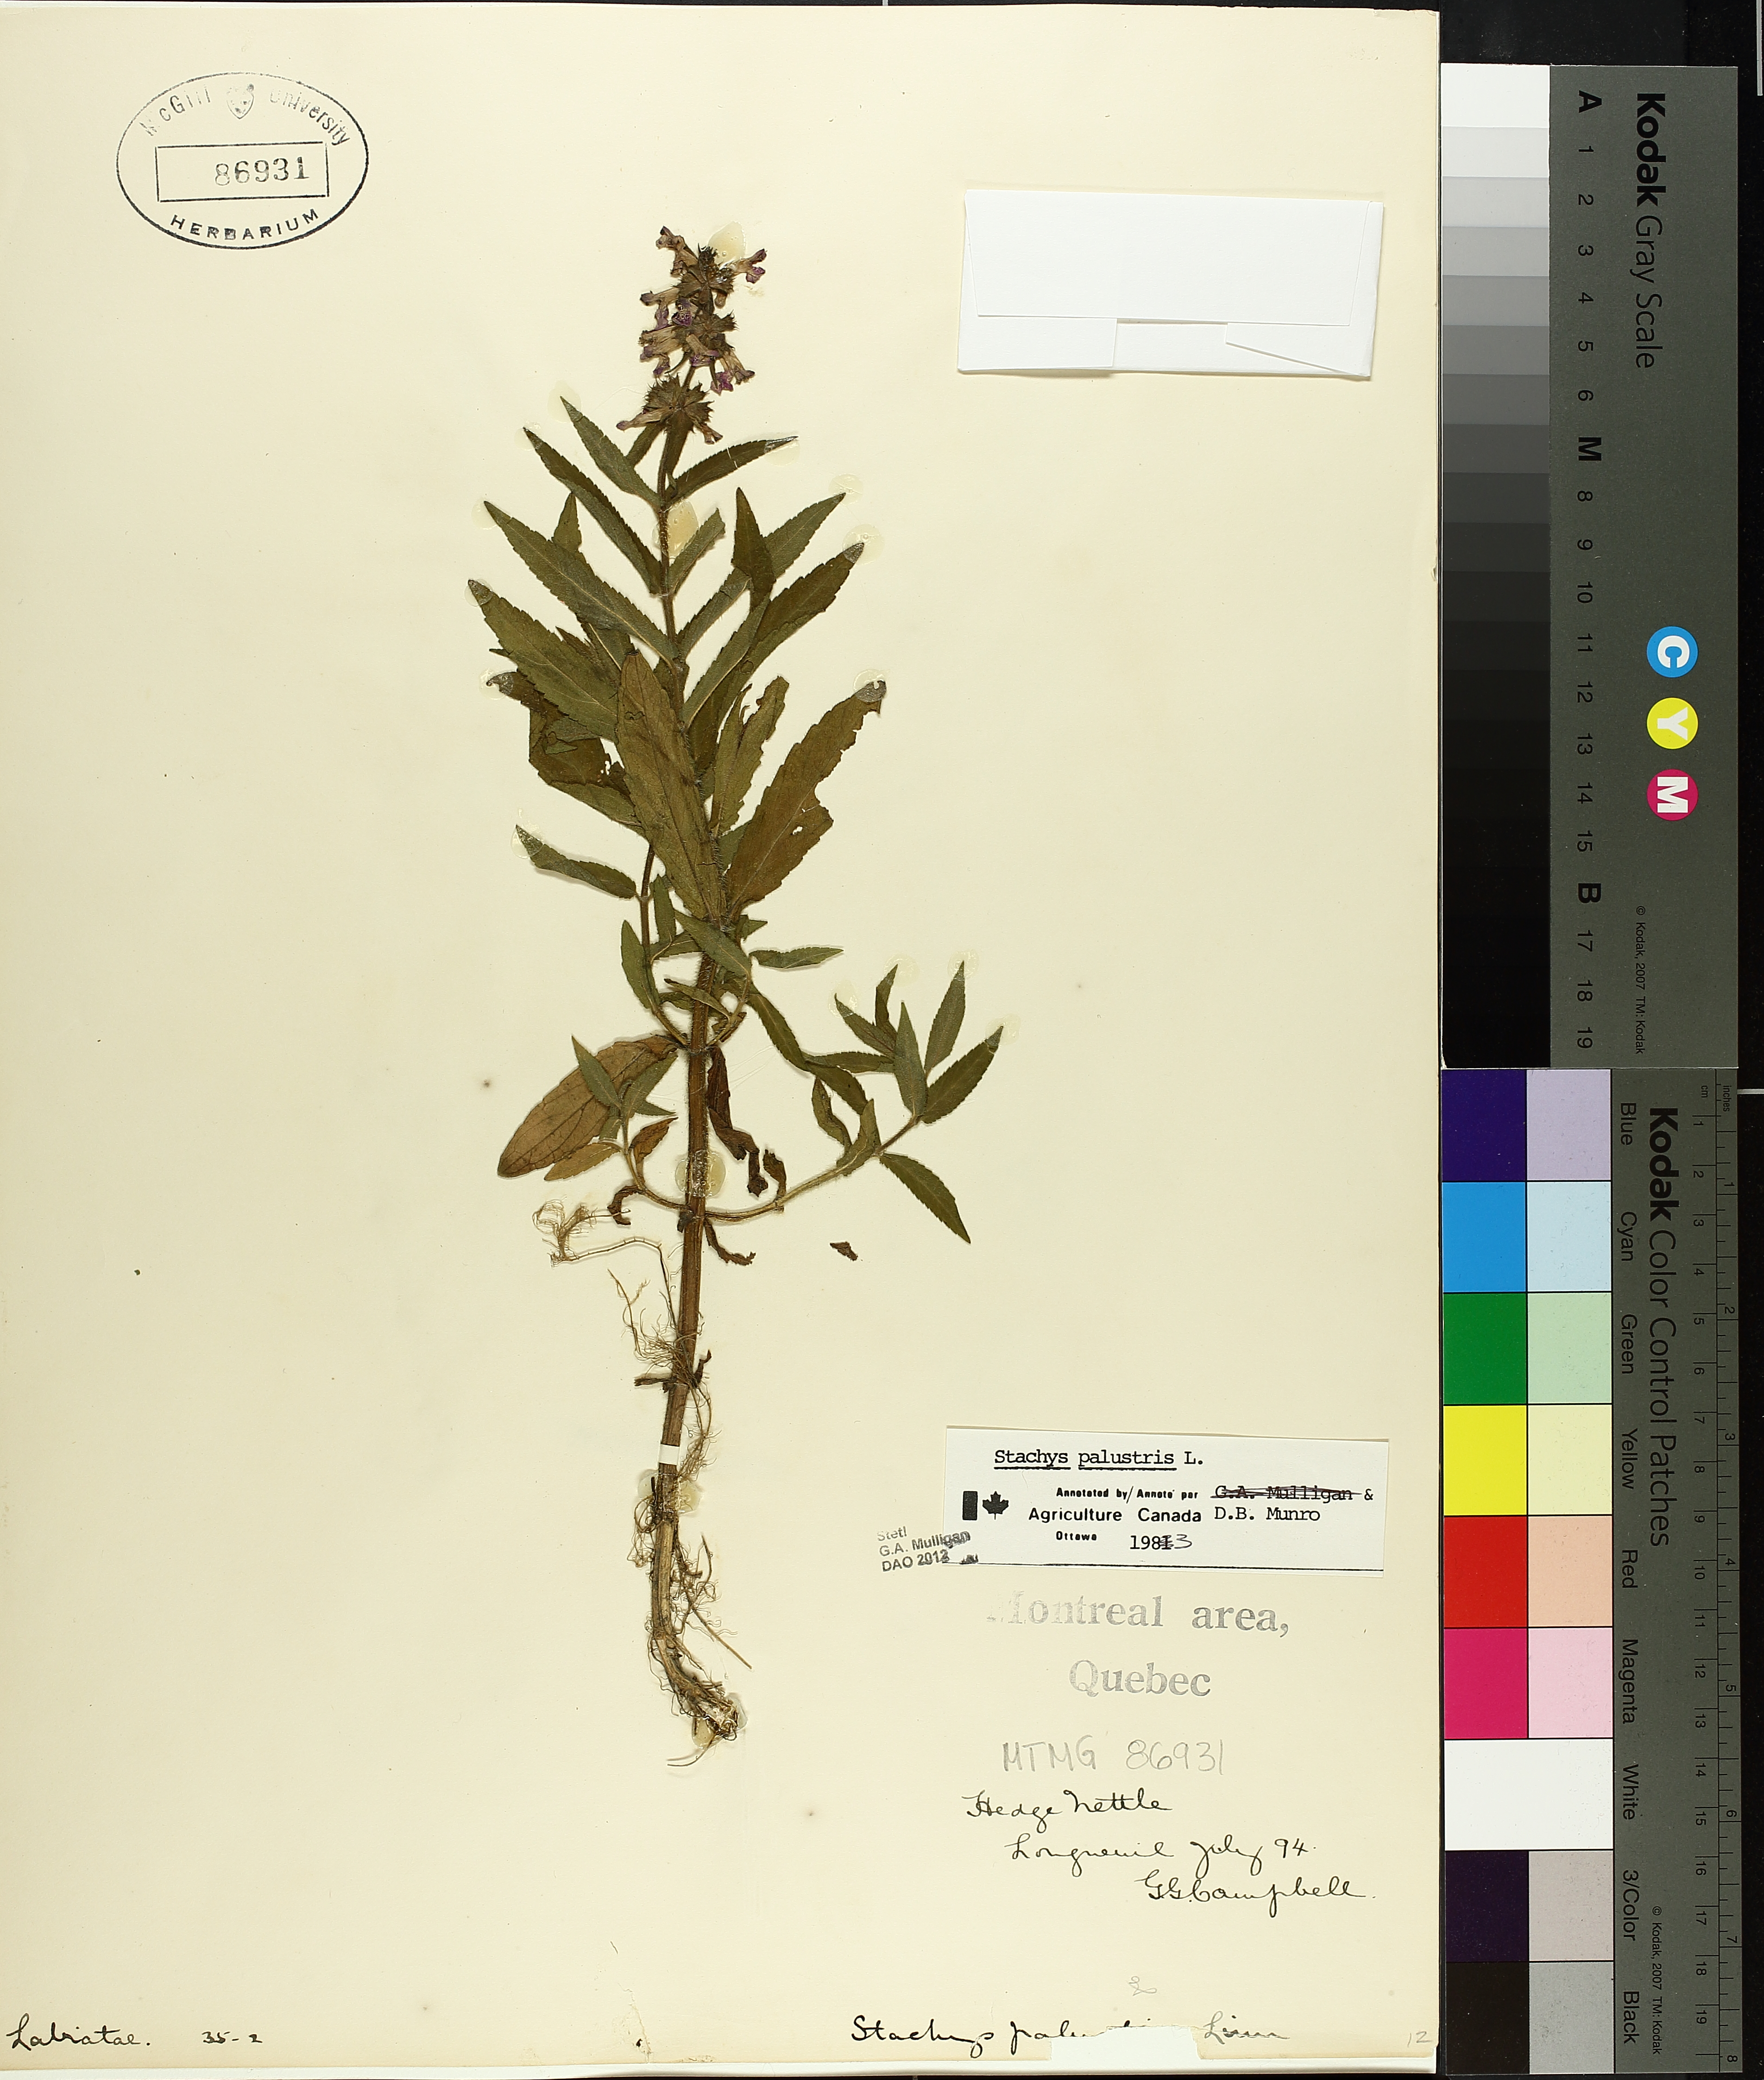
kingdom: Plantae
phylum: Tracheophyta
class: Magnoliopsida
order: Lamiales
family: Lamiaceae
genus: Stachys
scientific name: Stachys palustris
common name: Marsh woundwort
